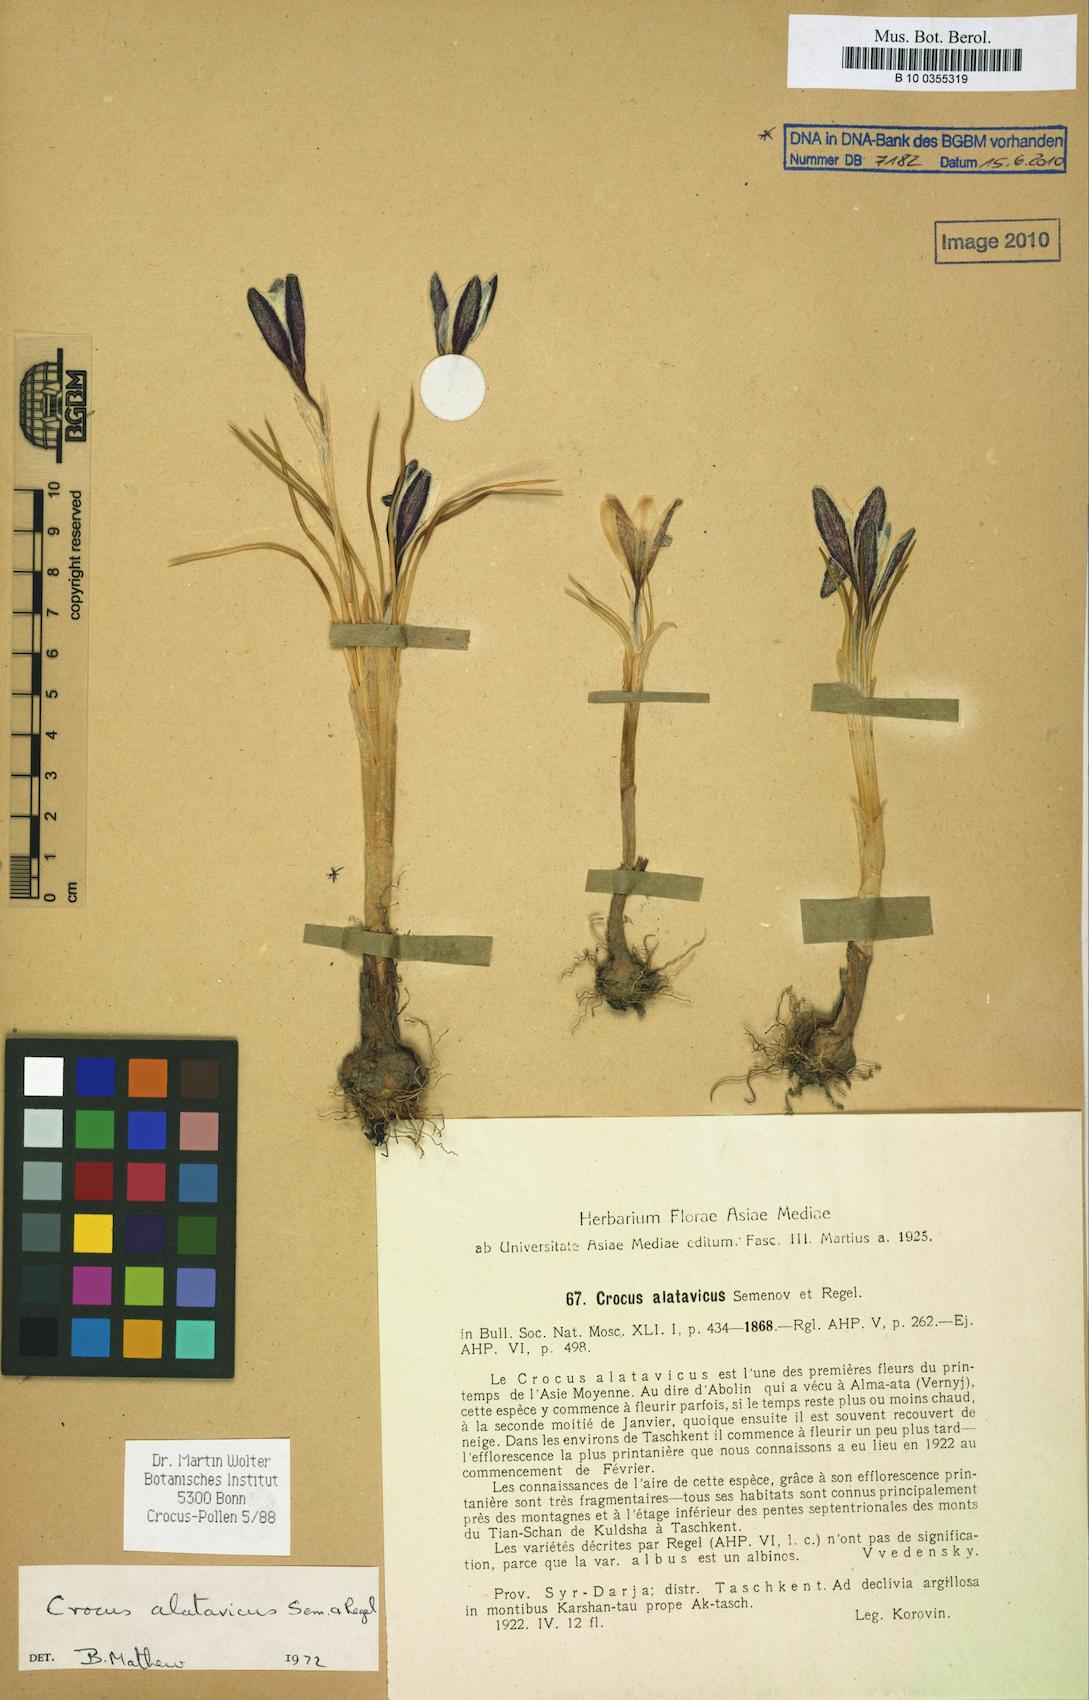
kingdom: Plantae
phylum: Tracheophyta
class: Liliopsida
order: Asparagales
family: Iridaceae
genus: Crocus
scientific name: Crocus alatavicus
